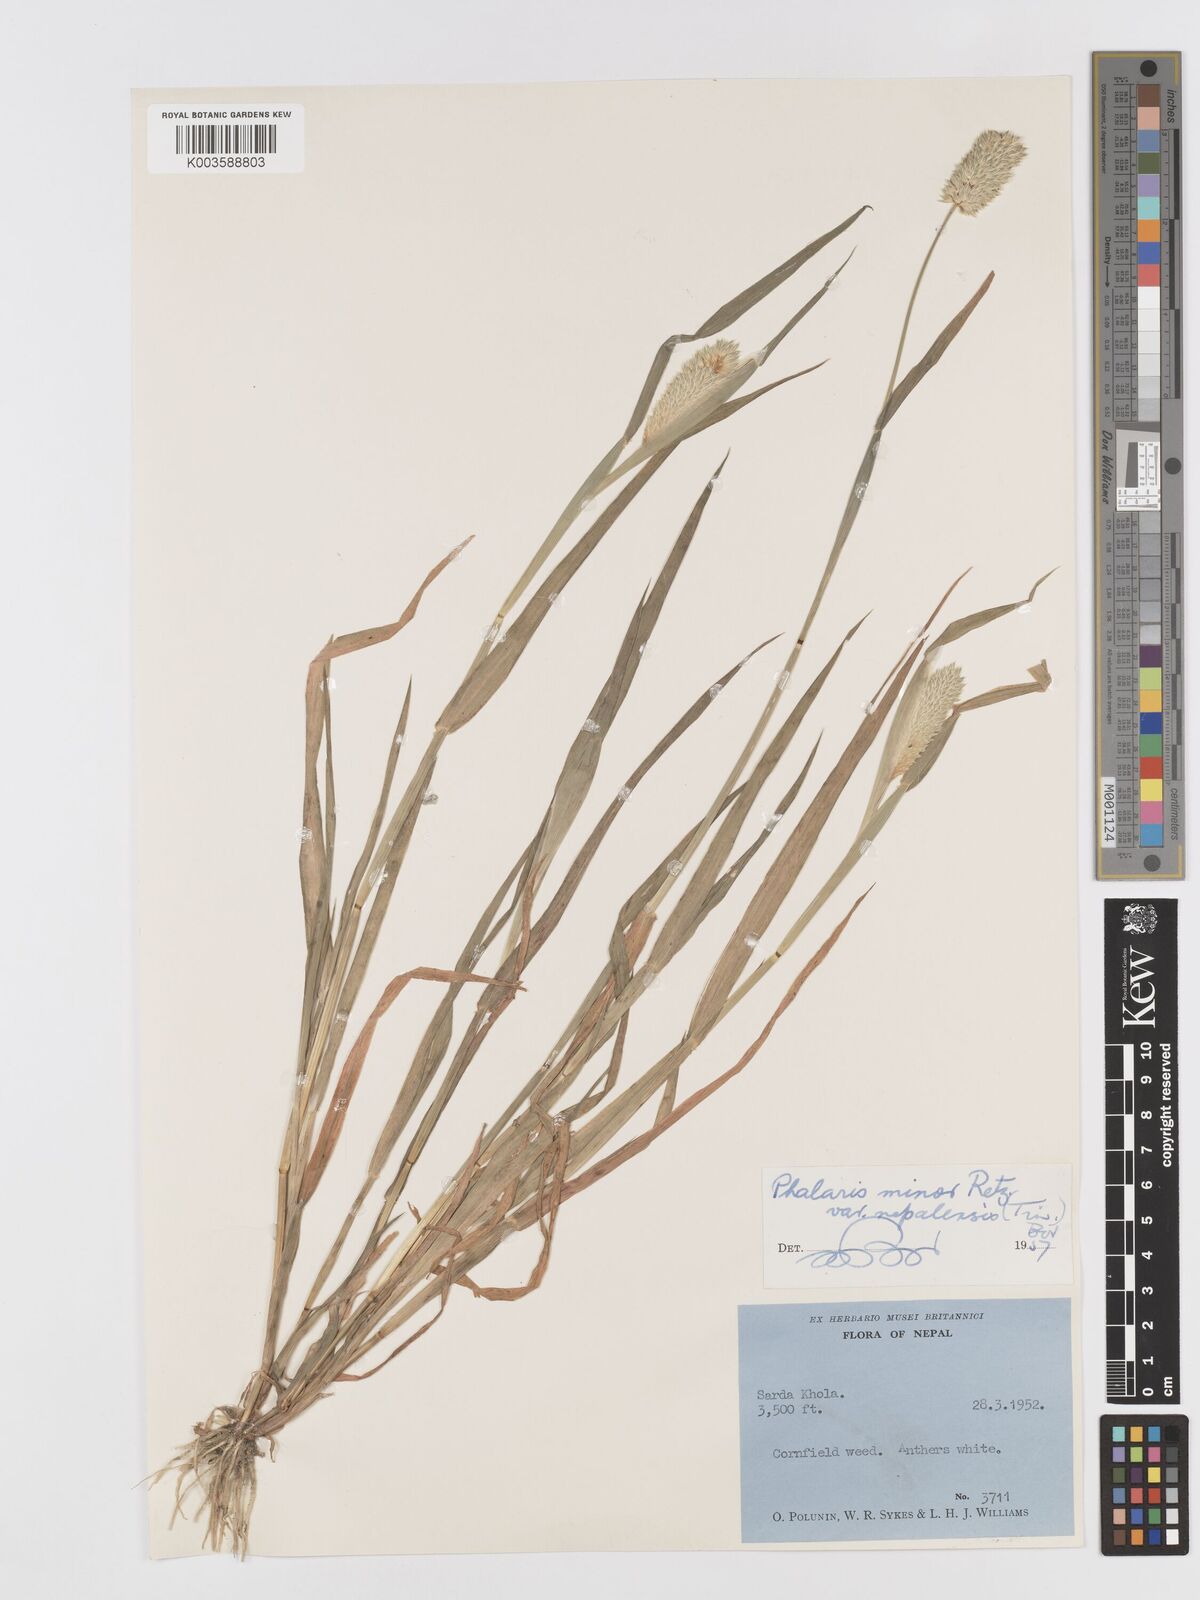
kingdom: Plantae
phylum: Tracheophyta
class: Liliopsida
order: Poales
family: Poaceae
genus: Phalaris
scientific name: Phalaris minor
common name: Littleseed canarygrass
